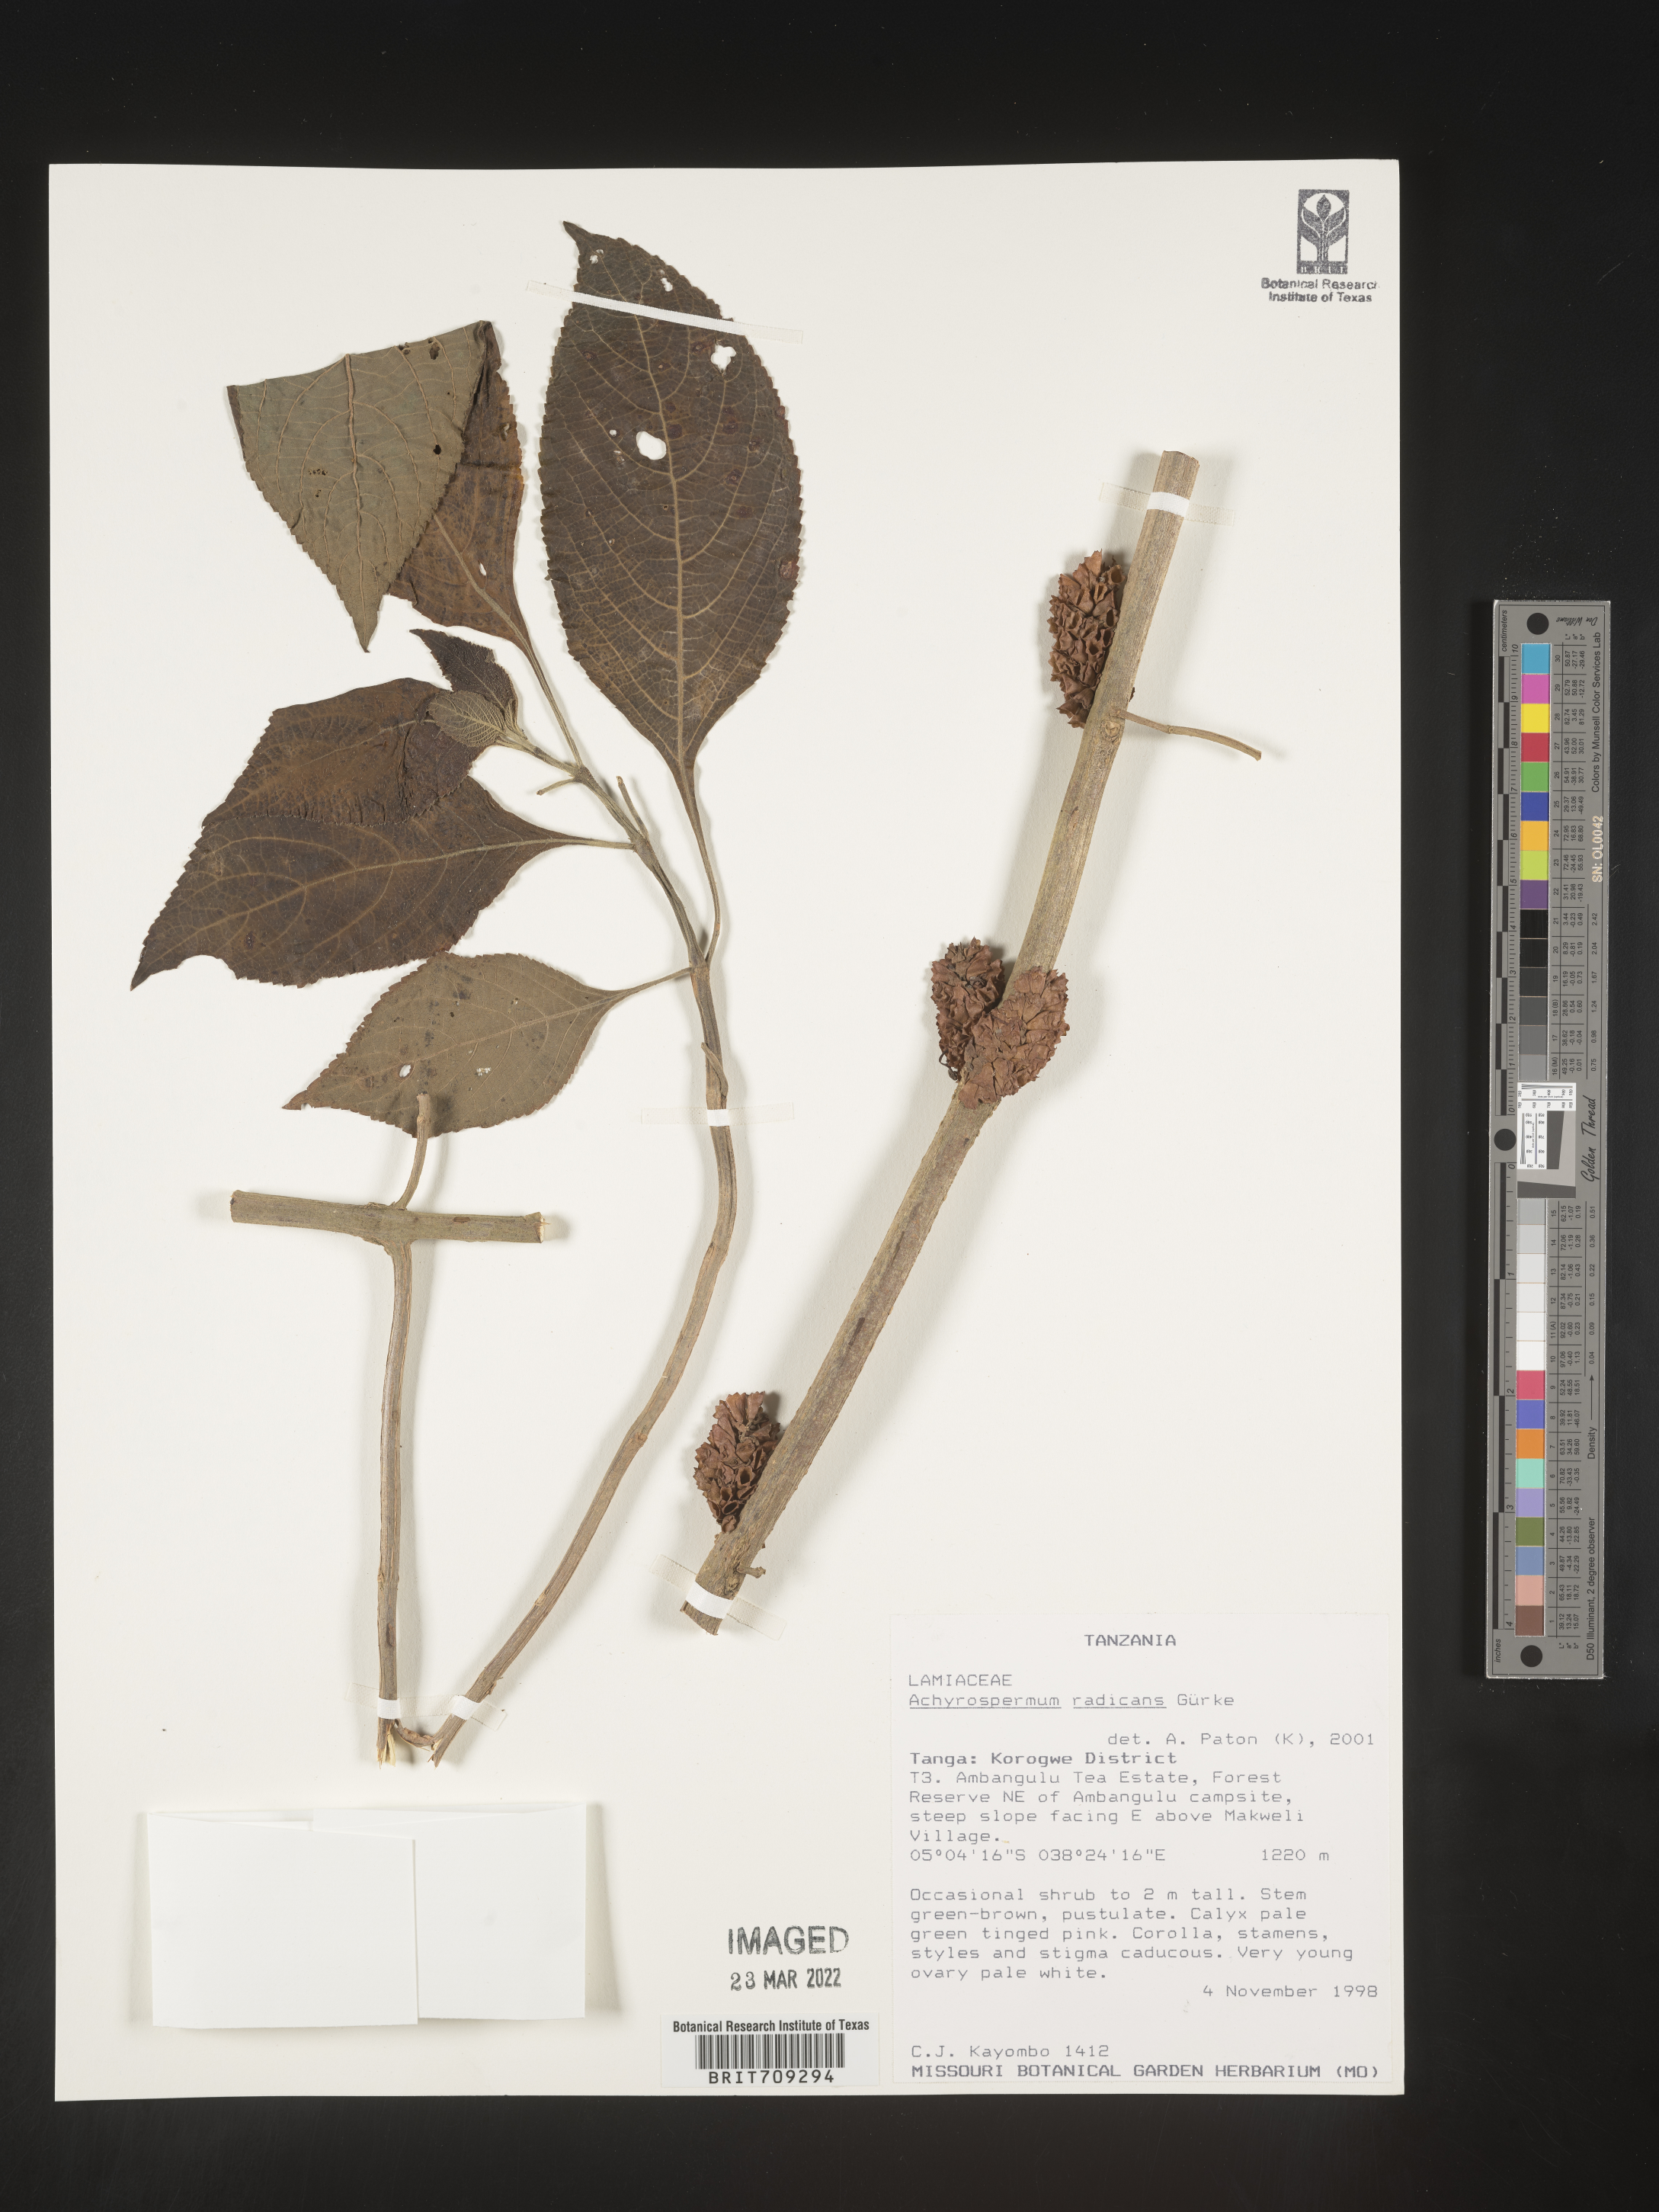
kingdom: Plantae
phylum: Tracheophyta
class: Magnoliopsida
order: Lamiales
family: Lamiaceae
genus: Achyrospermum
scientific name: Achyrospermum
